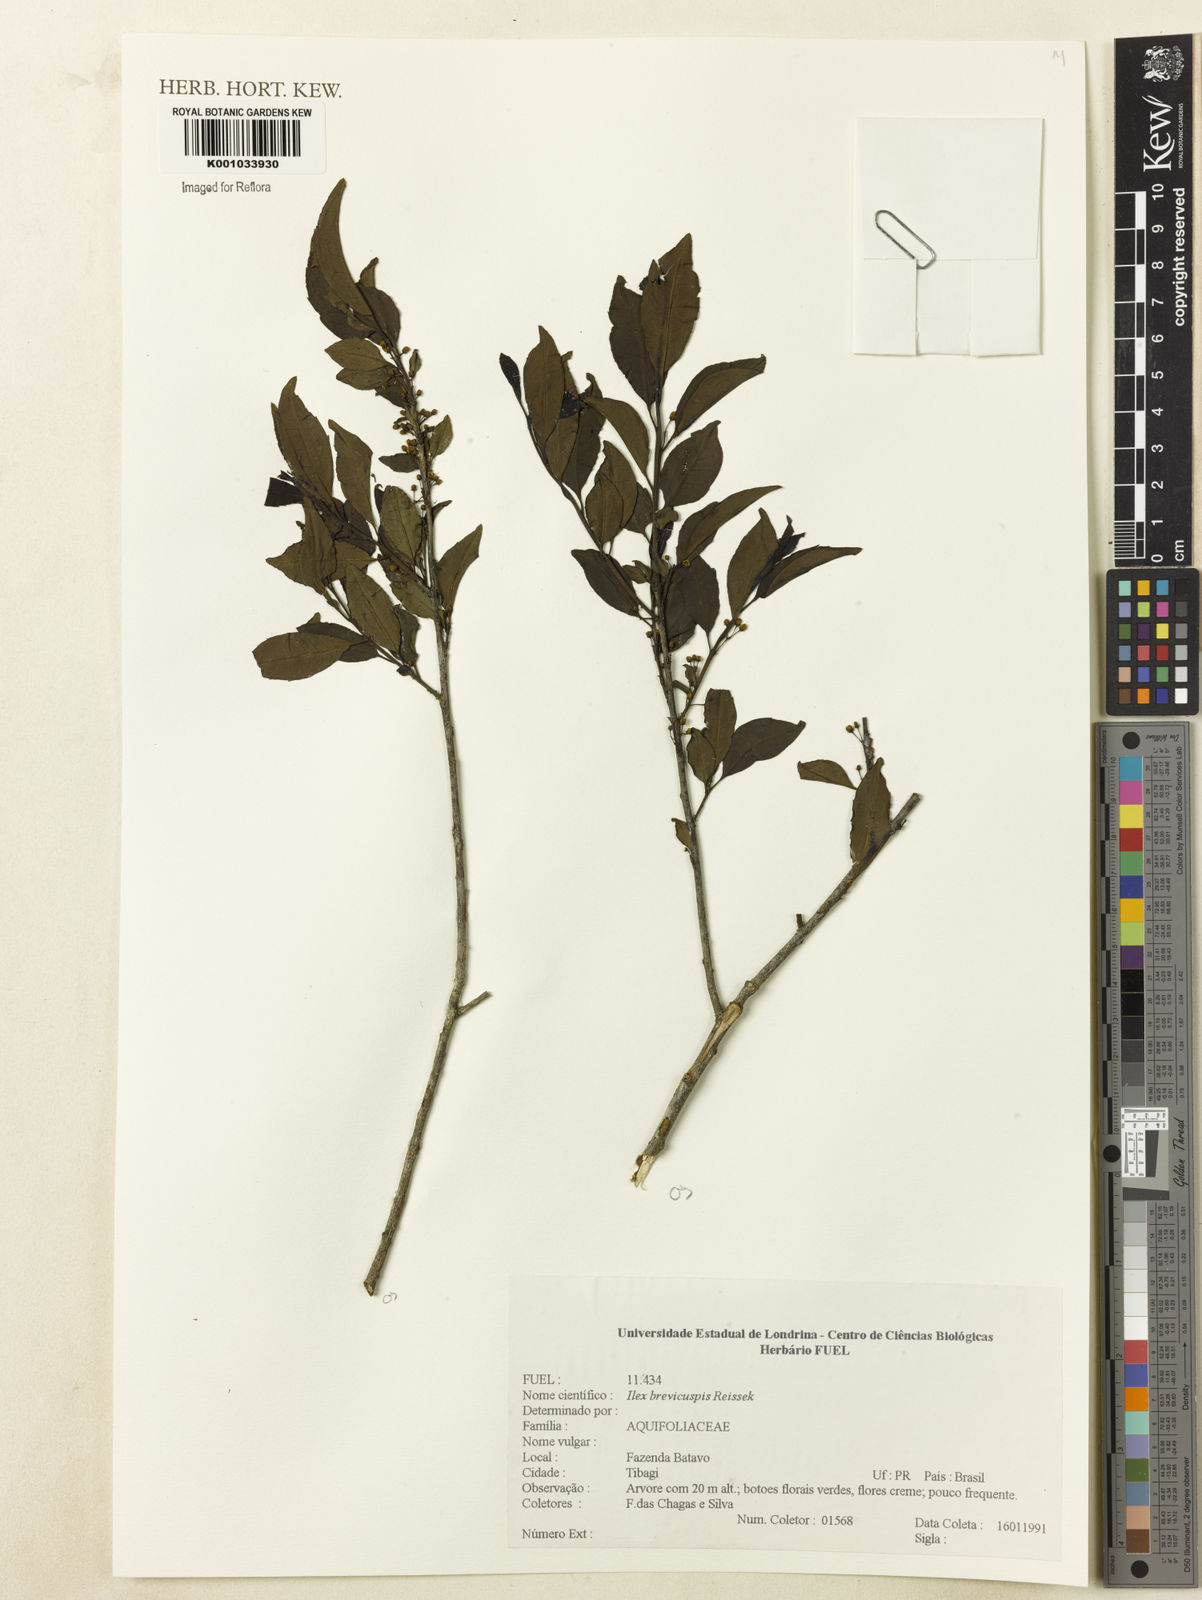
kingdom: Plantae
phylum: Tracheophyta
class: Magnoliopsida
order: Aquifoliales
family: Aquifoliaceae
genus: Ilex
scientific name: Ilex brevicuspis
